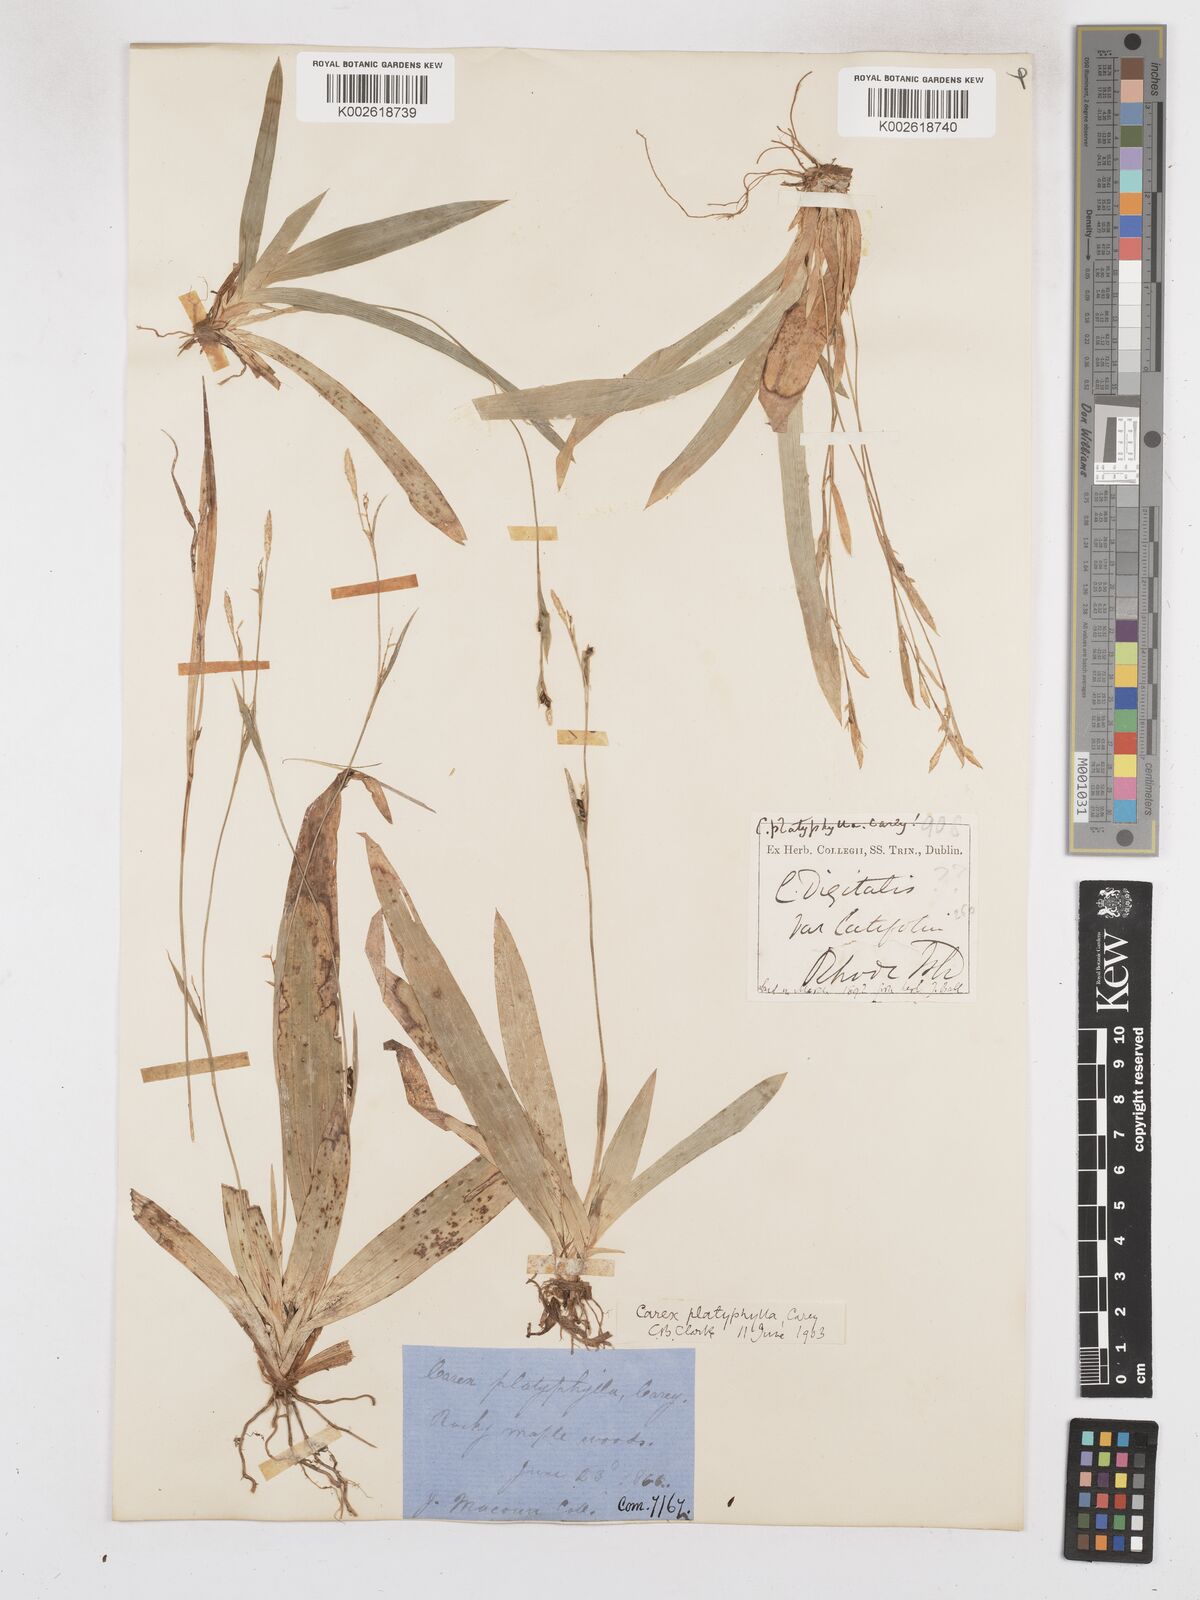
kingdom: Plantae
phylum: Tracheophyta
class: Liliopsida
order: Poales
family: Cyperaceae
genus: Carex
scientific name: Carex platyphylla
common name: Broad-leaved sedge
